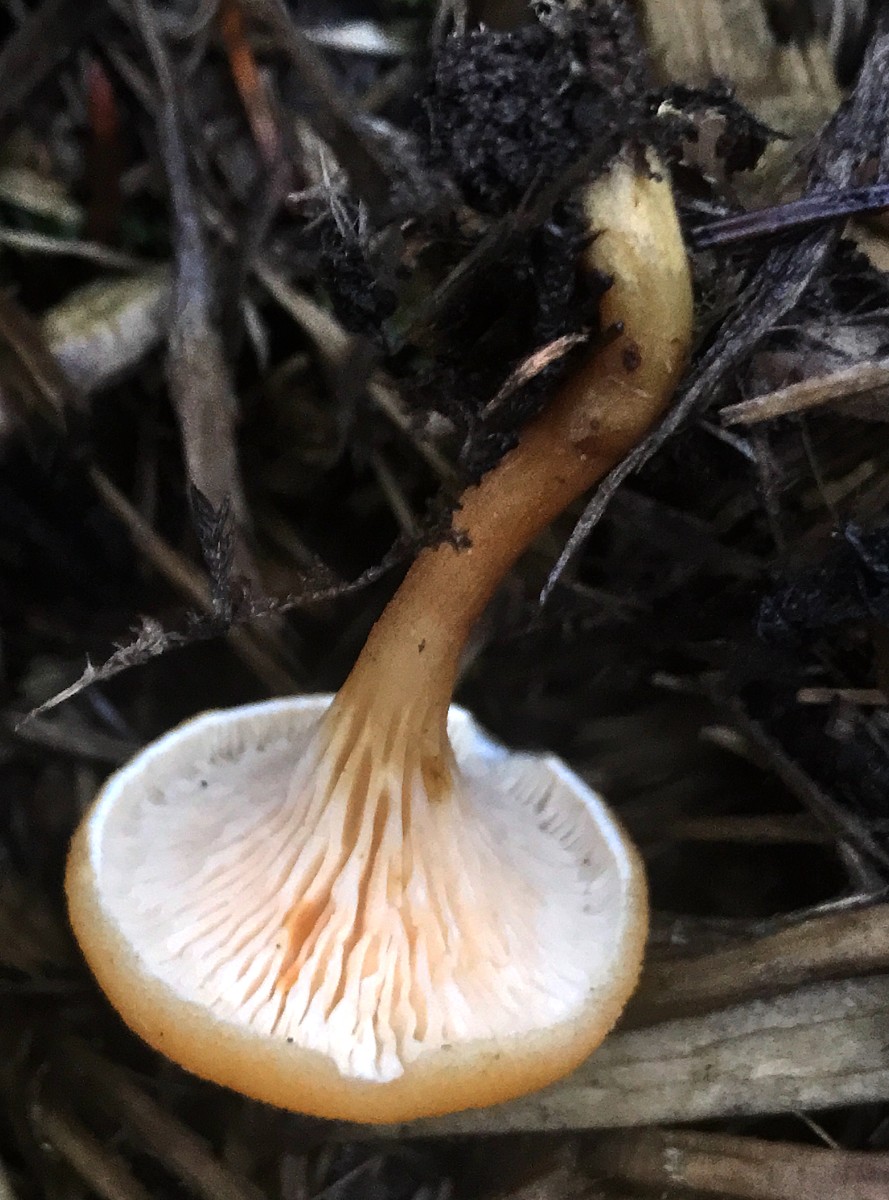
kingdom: Fungi
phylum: Basidiomycota
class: Agaricomycetes
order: Boletales
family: Hygrophoropsidaceae
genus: Hygrophoropsis
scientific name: Hygrophoropsis aurantiaca
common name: almindelig orangekantarel
